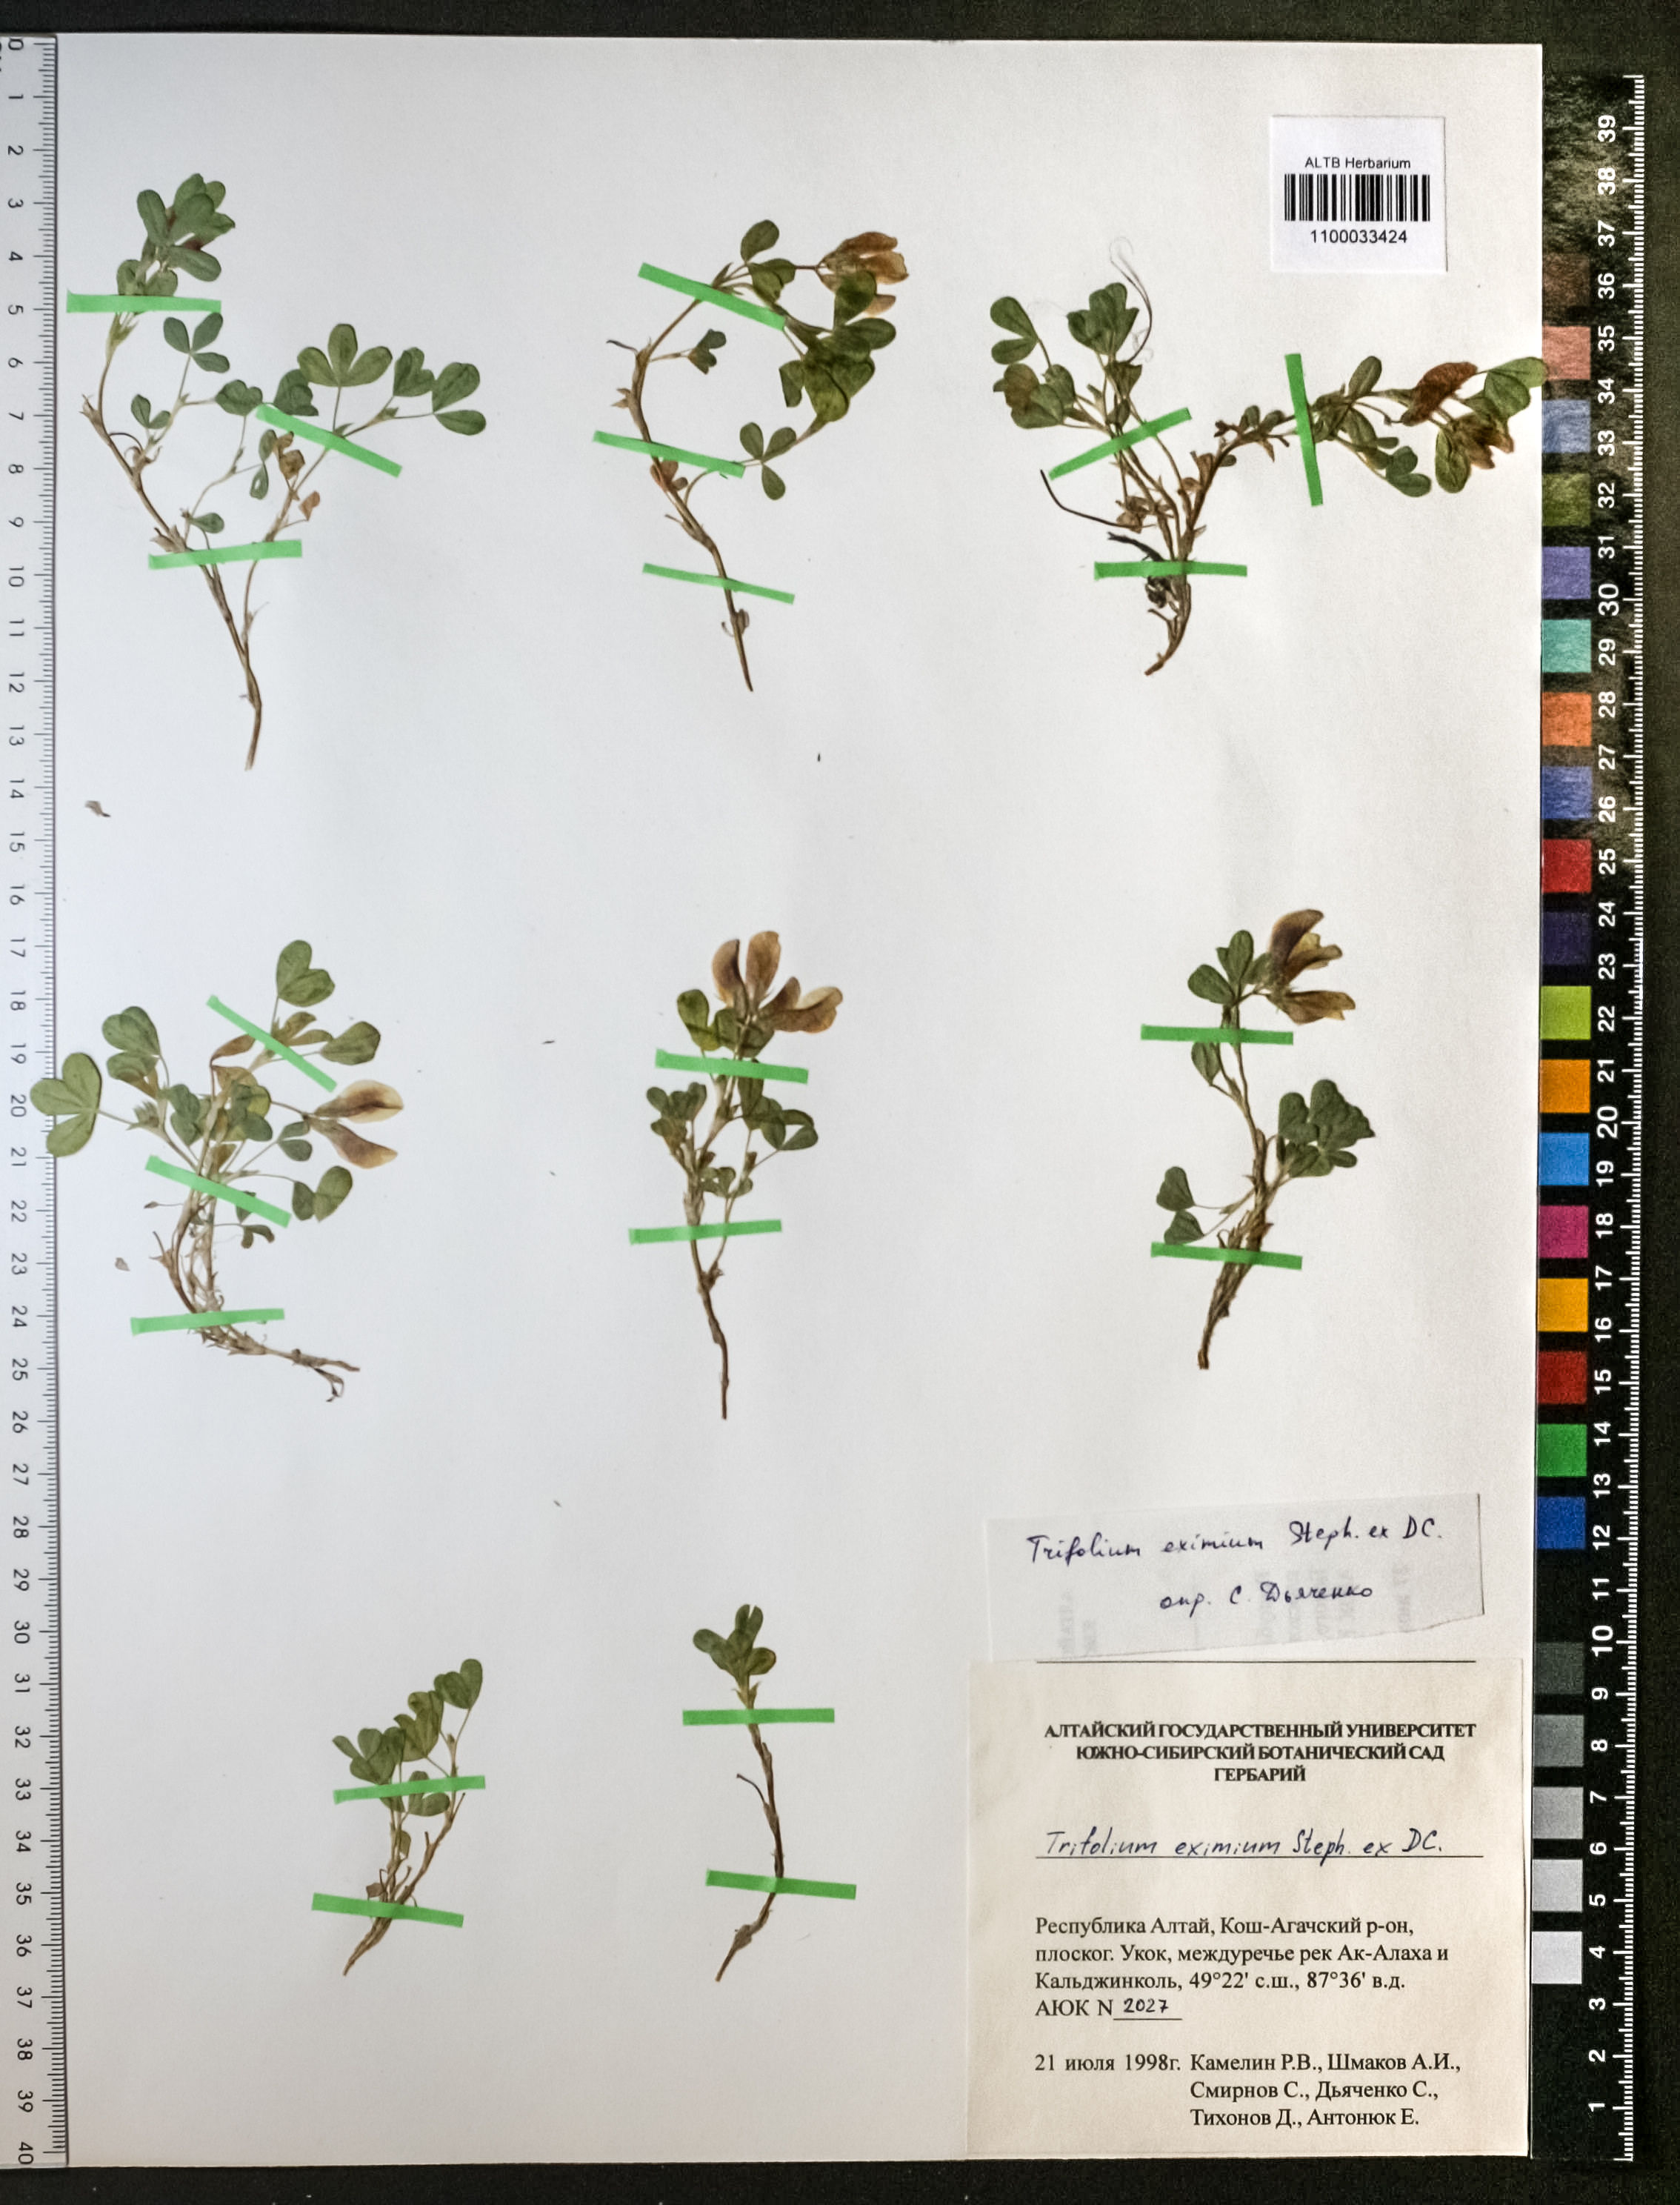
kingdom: Plantae
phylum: Tracheophyta
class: Magnoliopsida
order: Fabales
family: Fabaceae
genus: Trifolium
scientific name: Trifolium eximium
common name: Excellent clover
